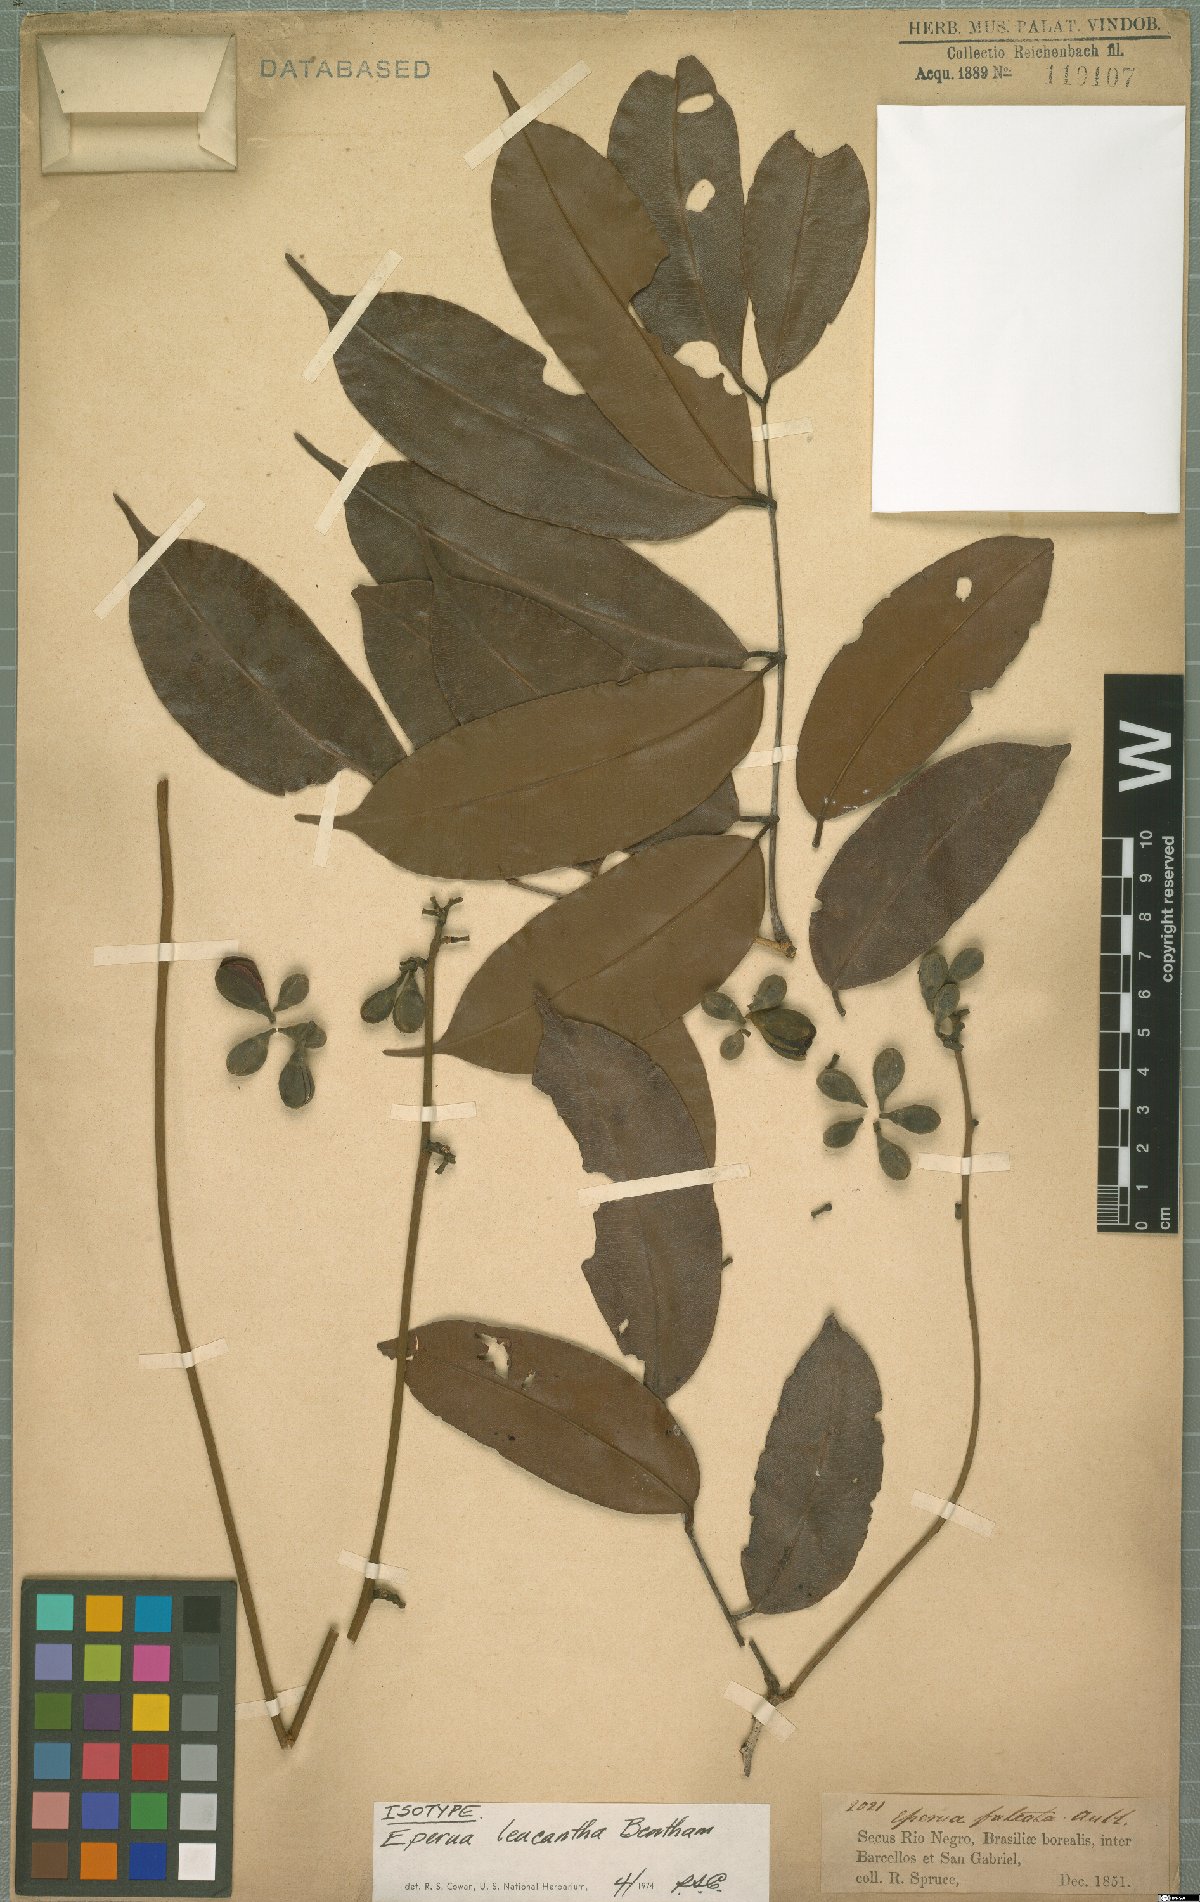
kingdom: Plantae
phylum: Tracheophyta
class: Magnoliopsida
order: Fabales
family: Fabaceae
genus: Eperua
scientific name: Eperua leucantha
